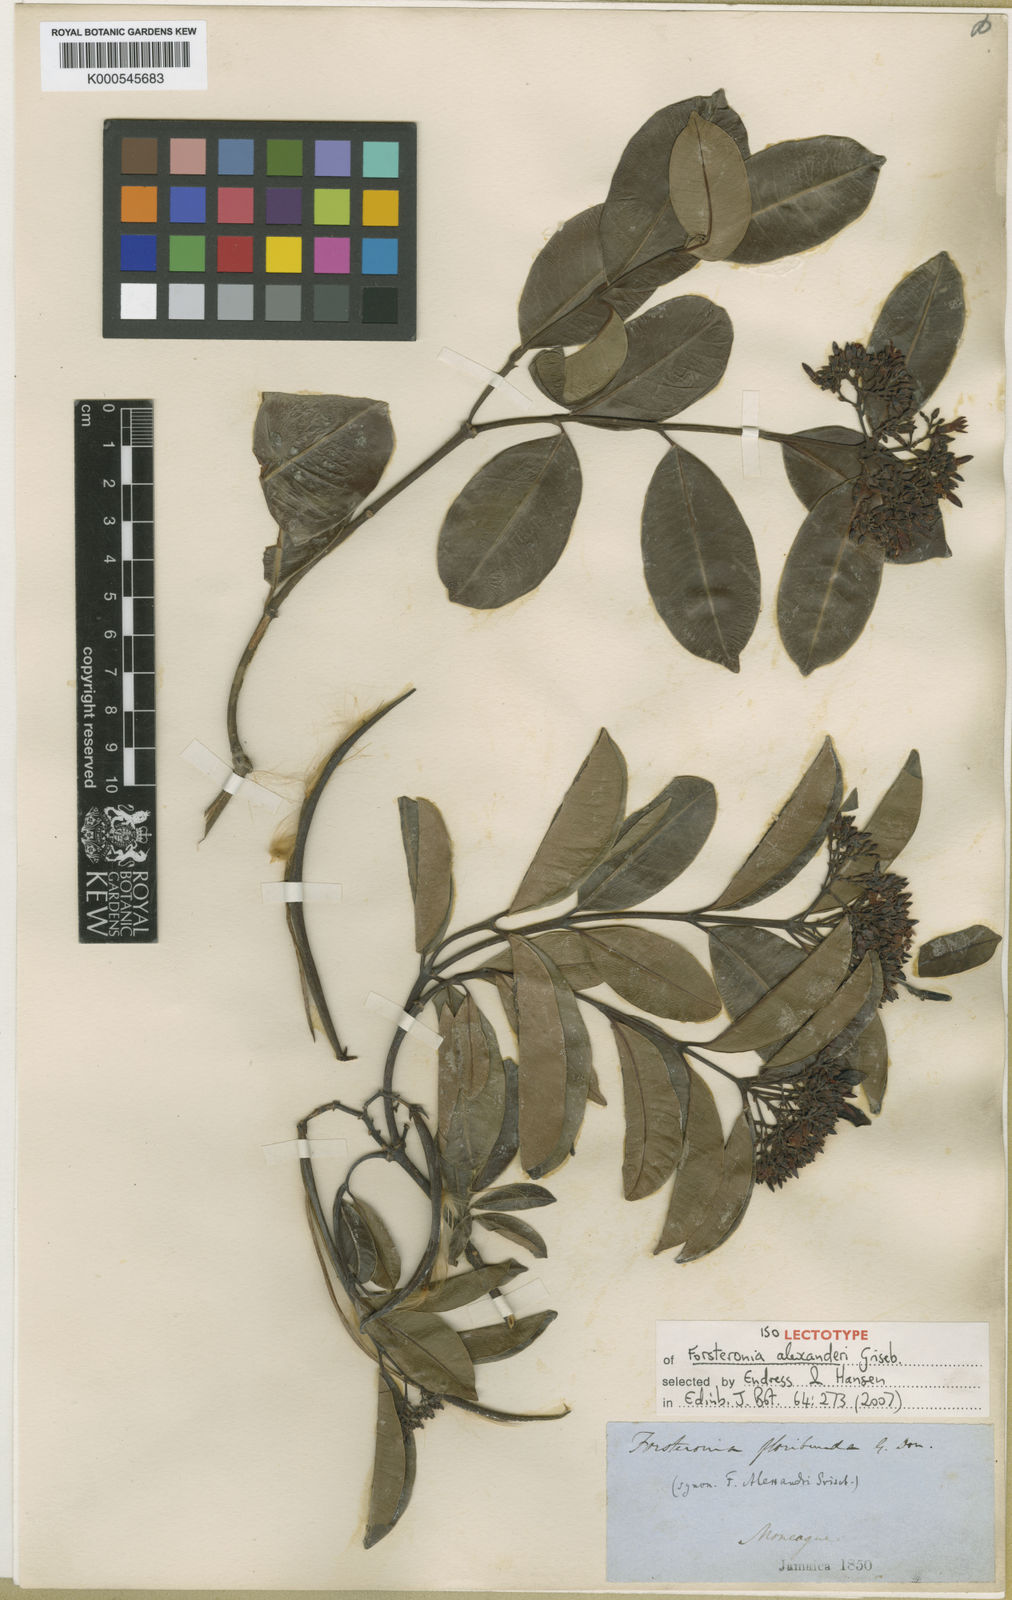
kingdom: Plantae
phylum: Tracheophyta
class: Magnoliopsida
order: Gentianales
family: Apocynaceae
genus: Pinochia
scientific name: Pinochia floribunda
